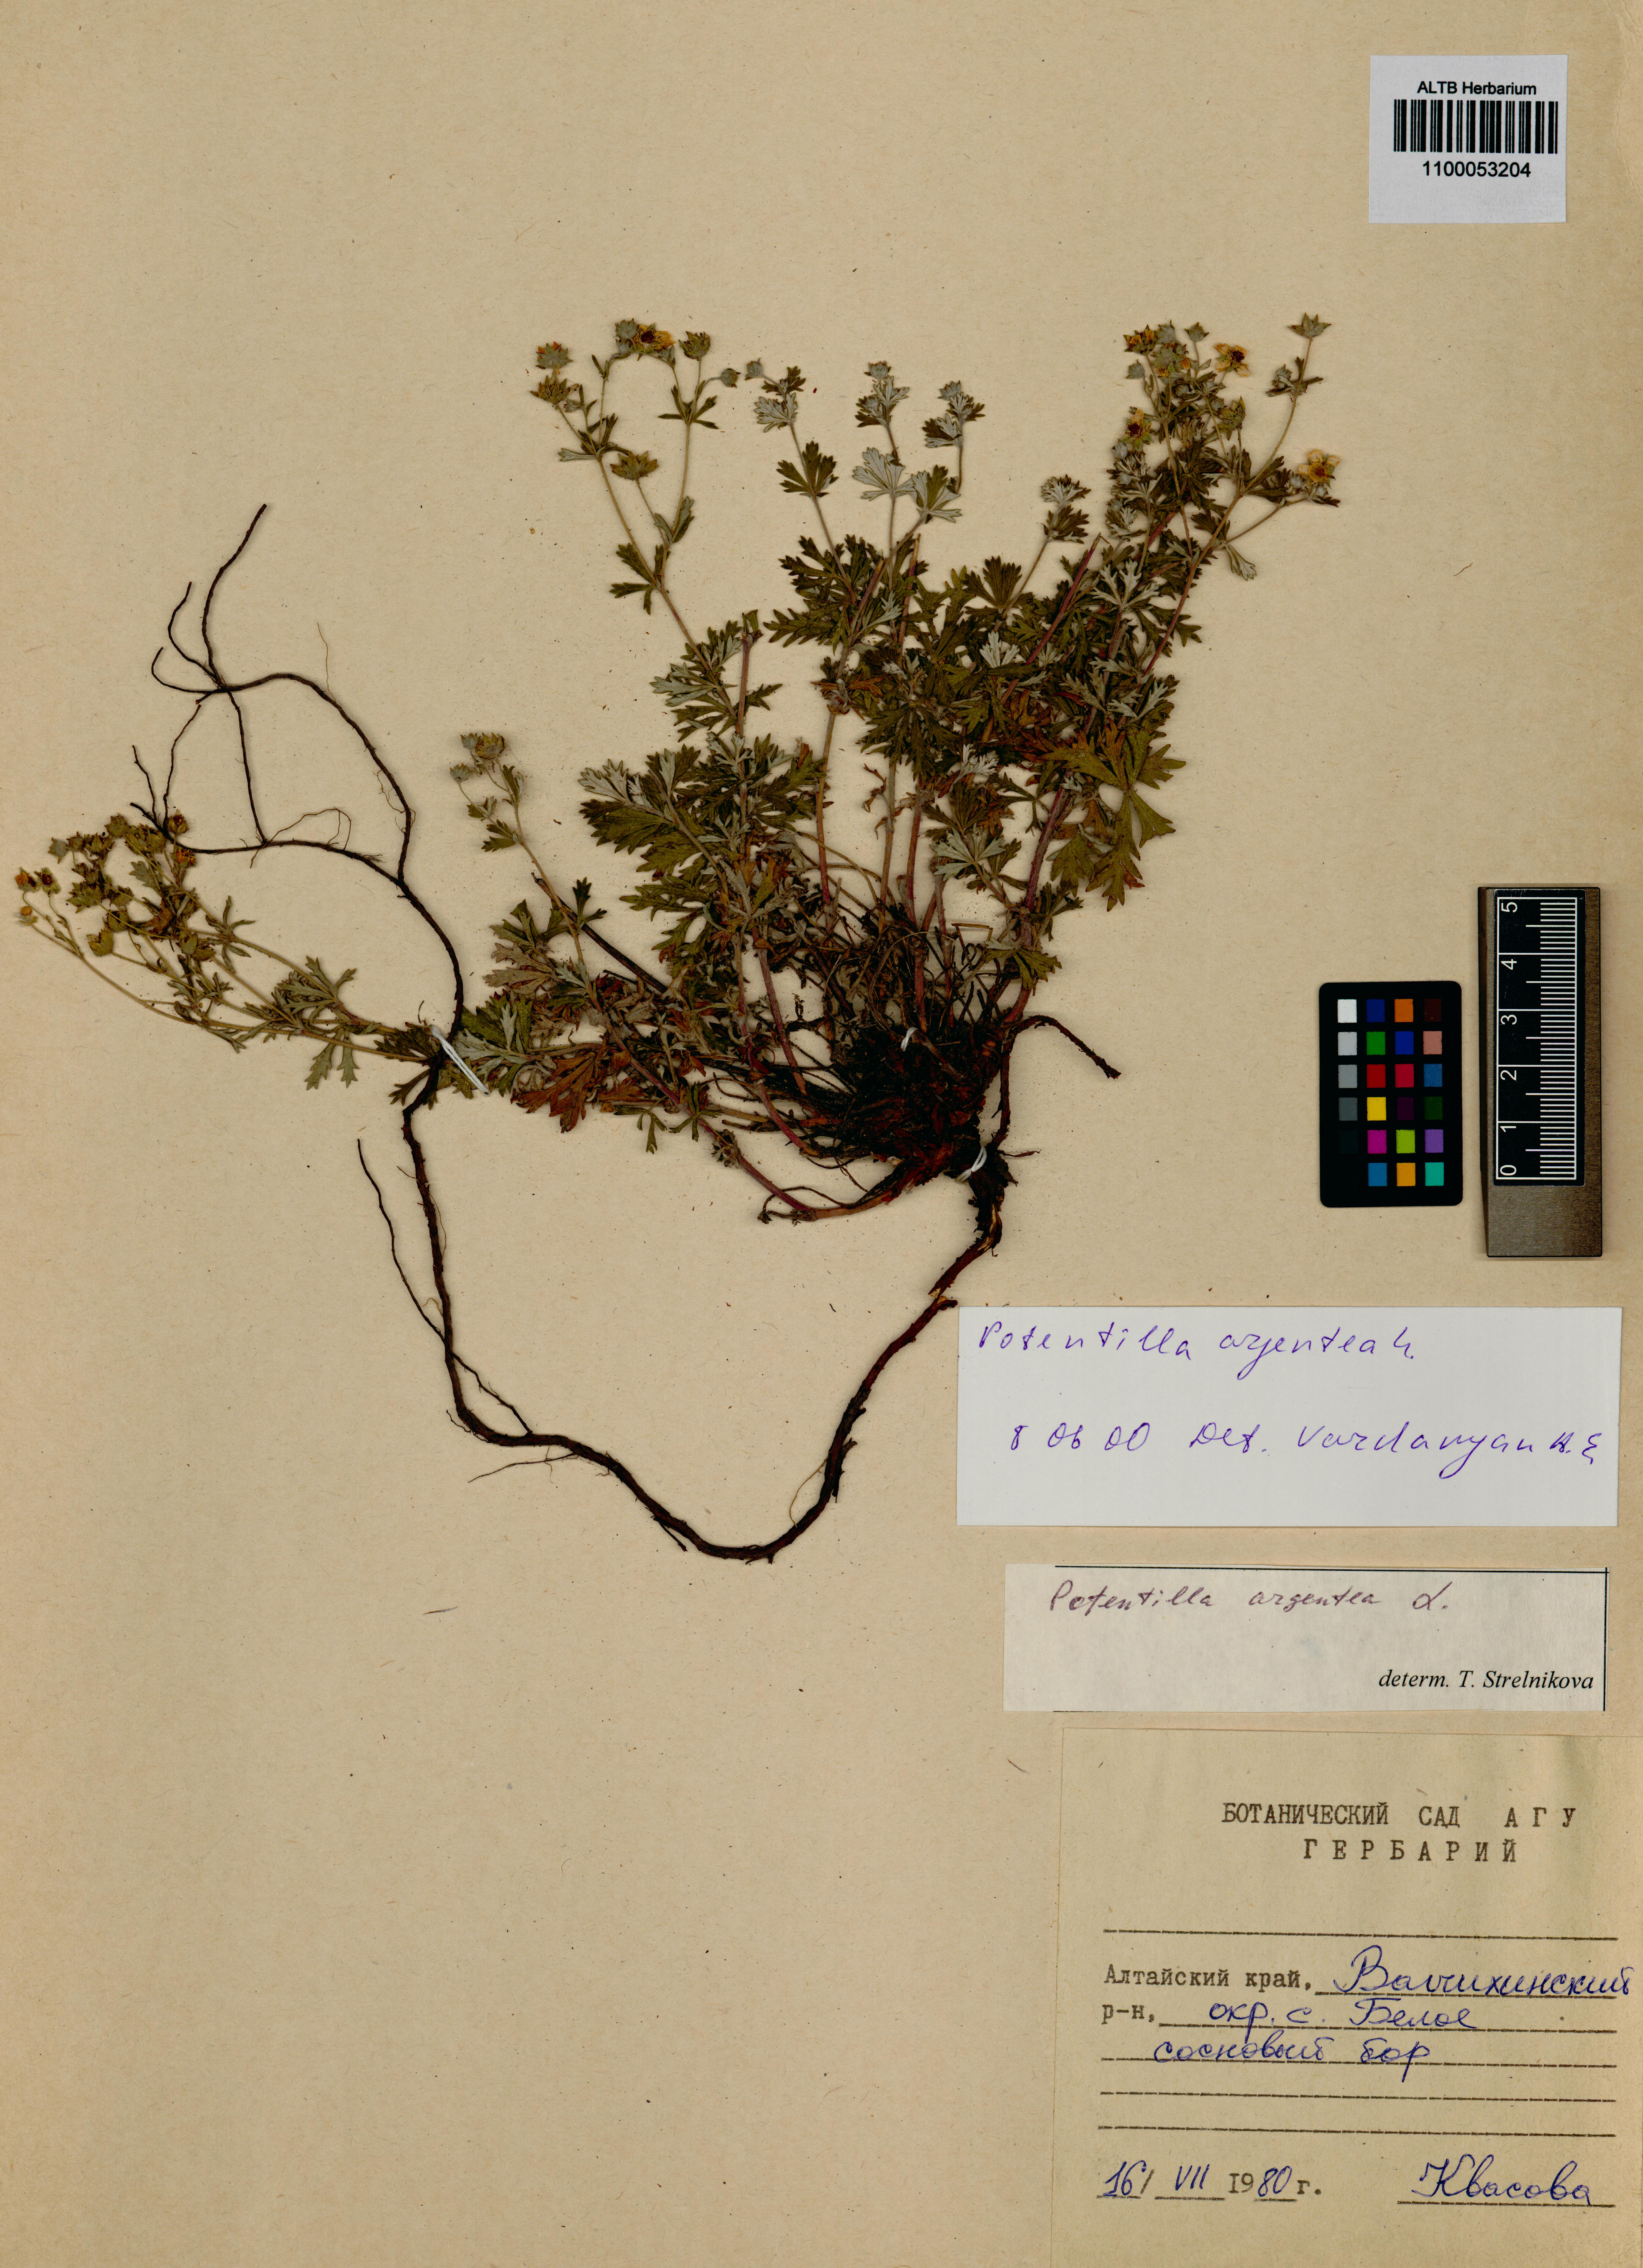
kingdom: Plantae
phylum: Tracheophyta
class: Magnoliopsida
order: Rosales
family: Rosaceae
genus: Potentilla
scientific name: Potentilla argentea
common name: Hoary cinquefoil
